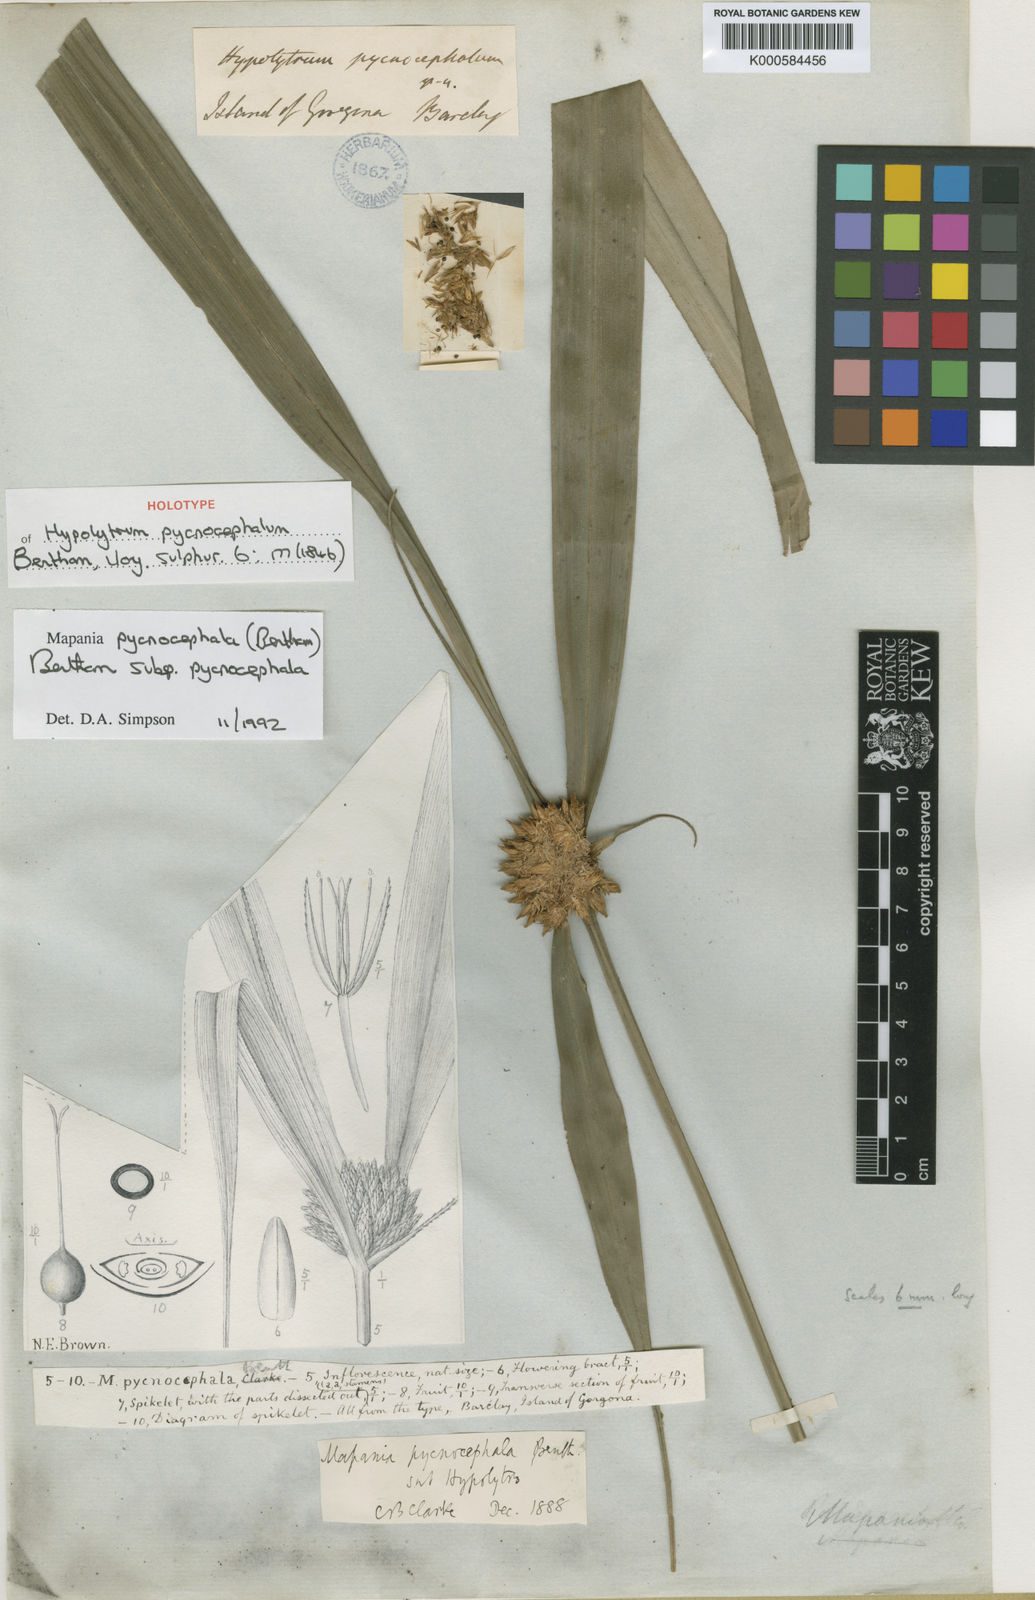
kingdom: Plantae
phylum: Tracheophyta
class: Liliopsida
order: Poales
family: Cyperaceae
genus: Mapania
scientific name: Mapania pycnocephala
